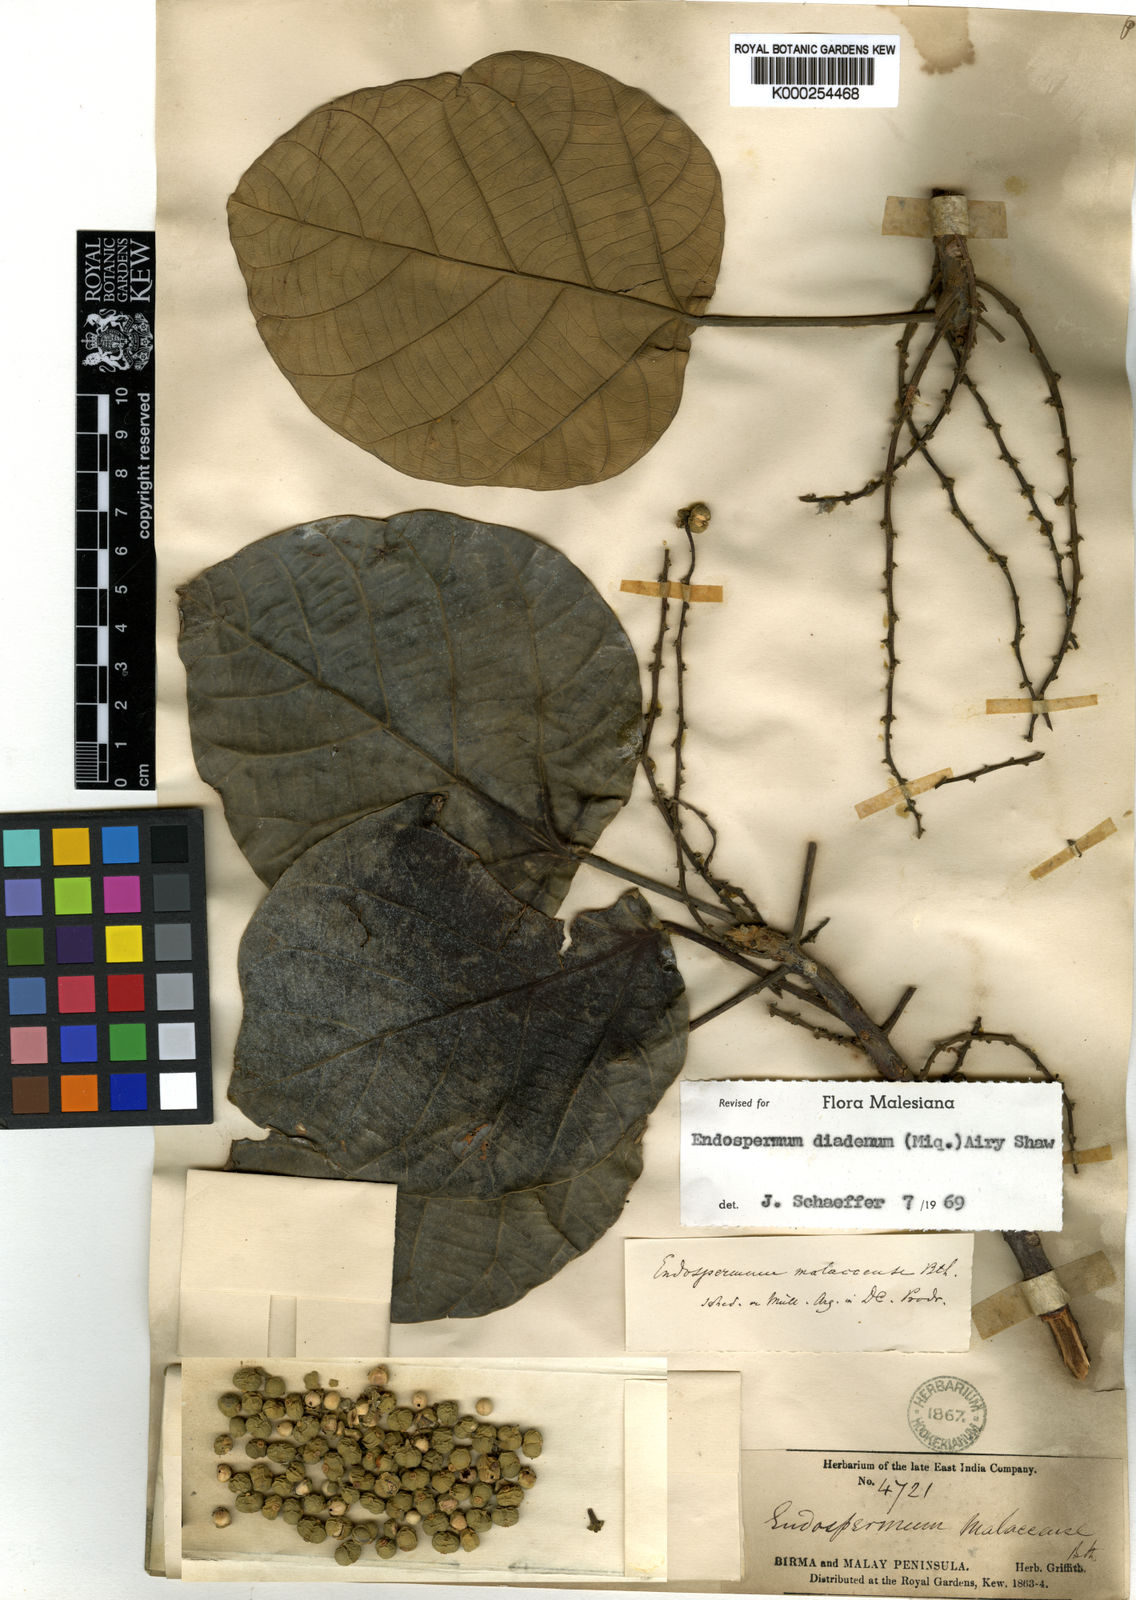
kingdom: Plantae
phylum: Tracheophyta
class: Magnoliopsida
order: Malpighiales
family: Euphorbiaceae
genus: Endospermum
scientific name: Endospermum diadenum
